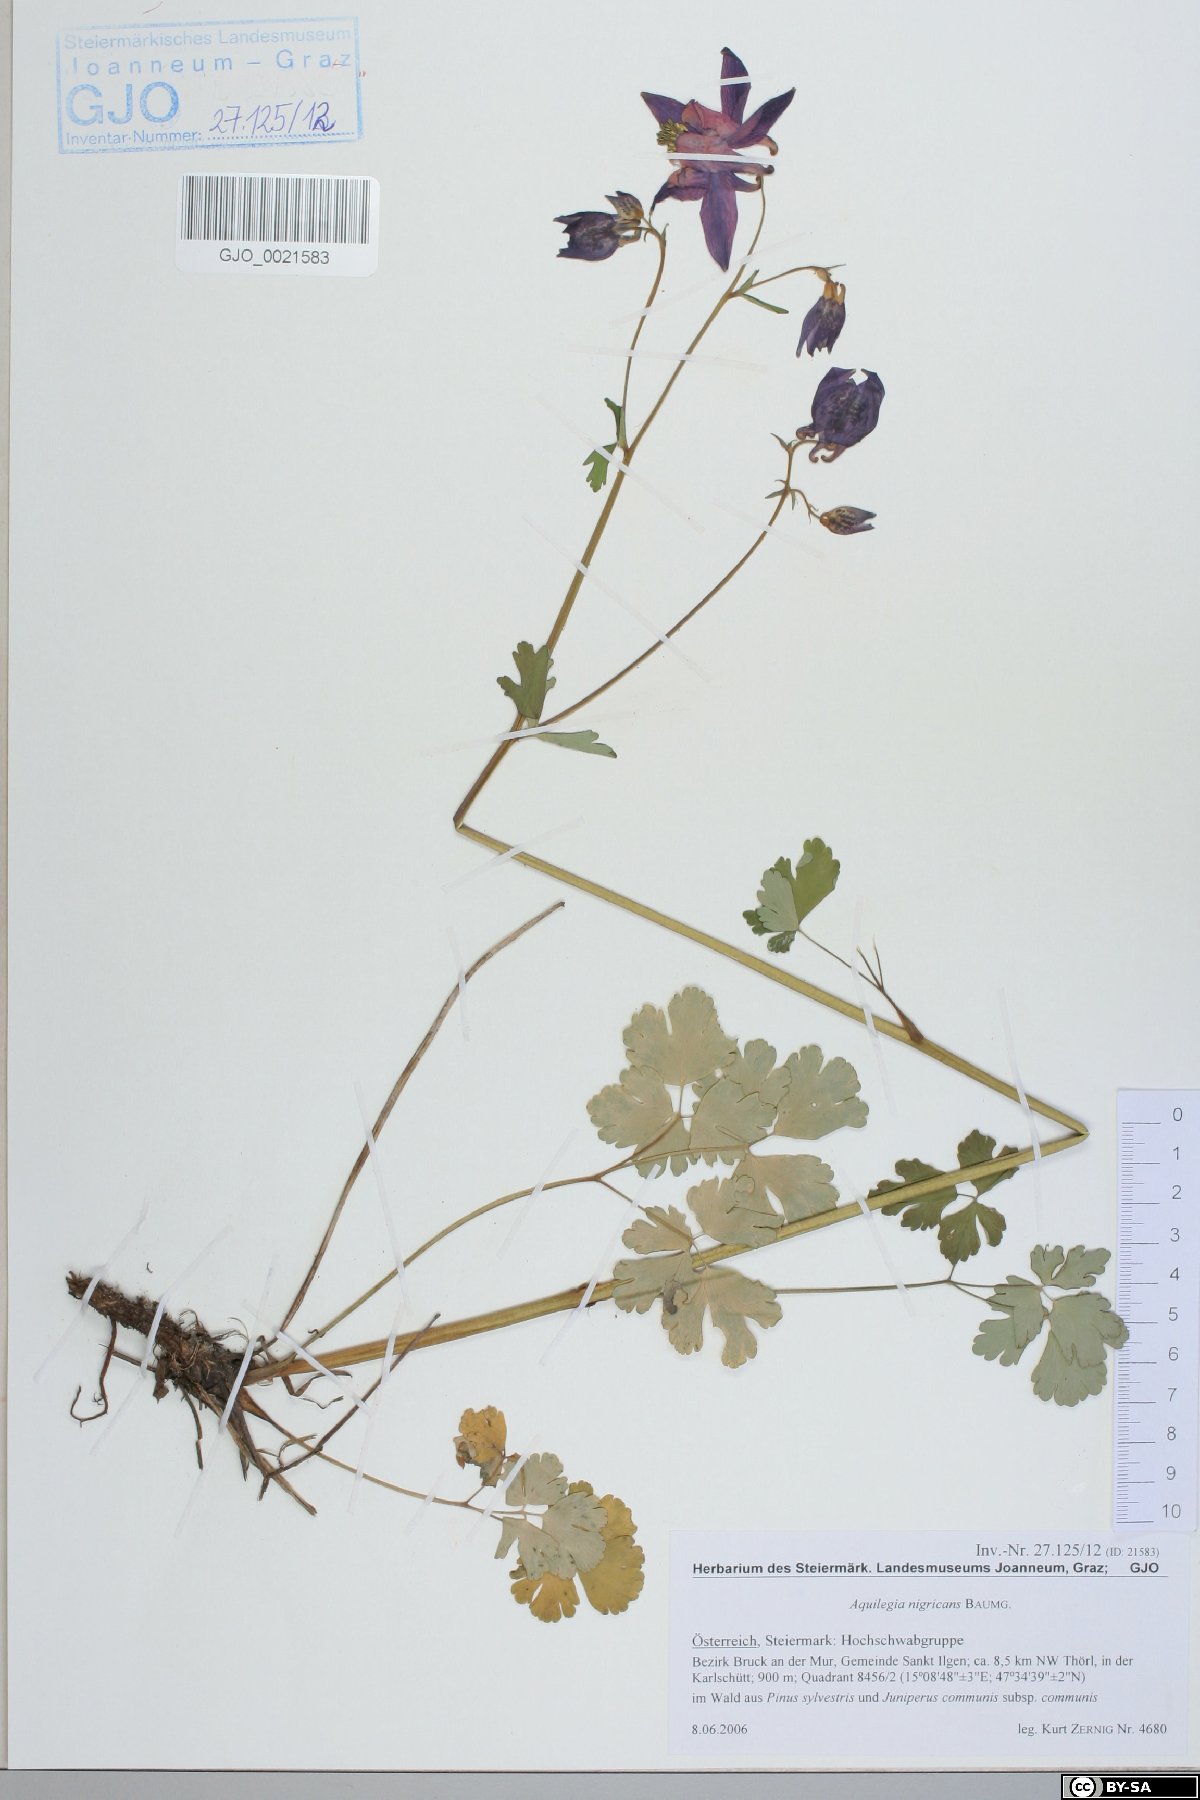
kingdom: Plantae
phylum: Tracheophyta
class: Magnoliopsida
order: Ranunculales
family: Ranunculaceae
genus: Aquilegia
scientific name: Aquilegia nigricans
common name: Bulgarian columbine
